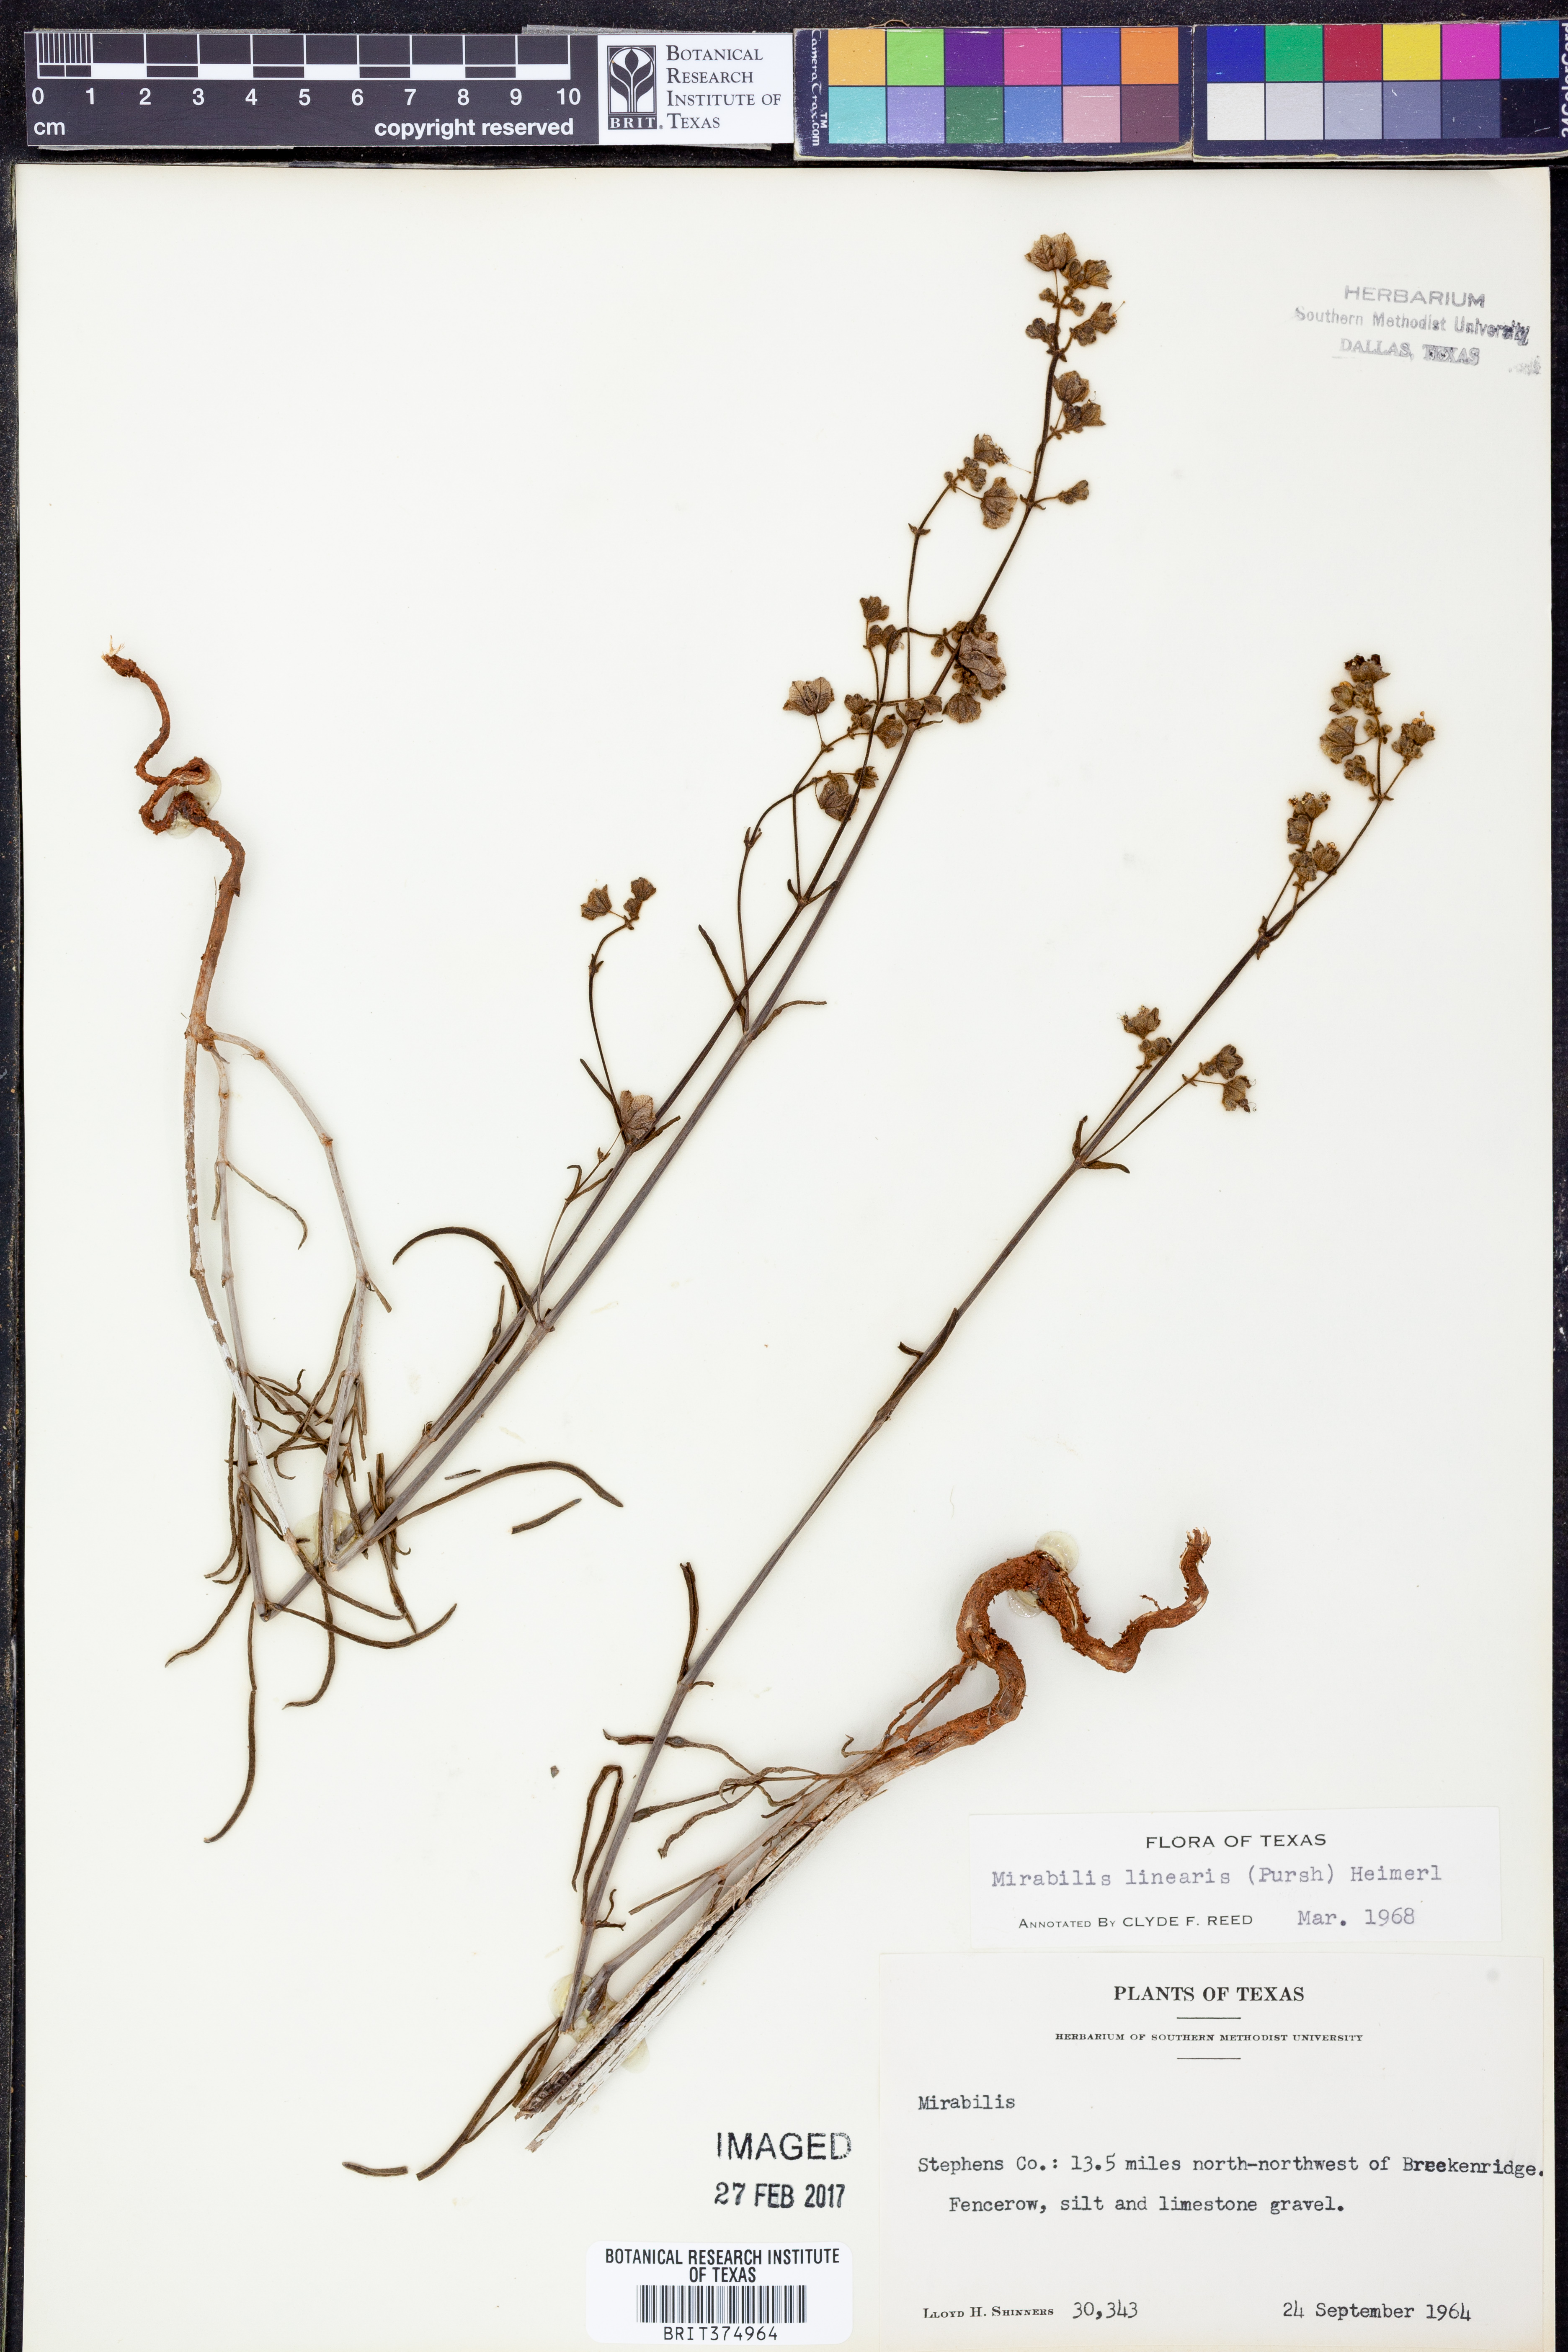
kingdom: Plantae
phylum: Tracheophyta
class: Magnoliopsida
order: Caryophyllales
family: Nyctaginaceae
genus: Mirabilis
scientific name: Mirabilis linearis
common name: Linear-leaved four-o'clock
